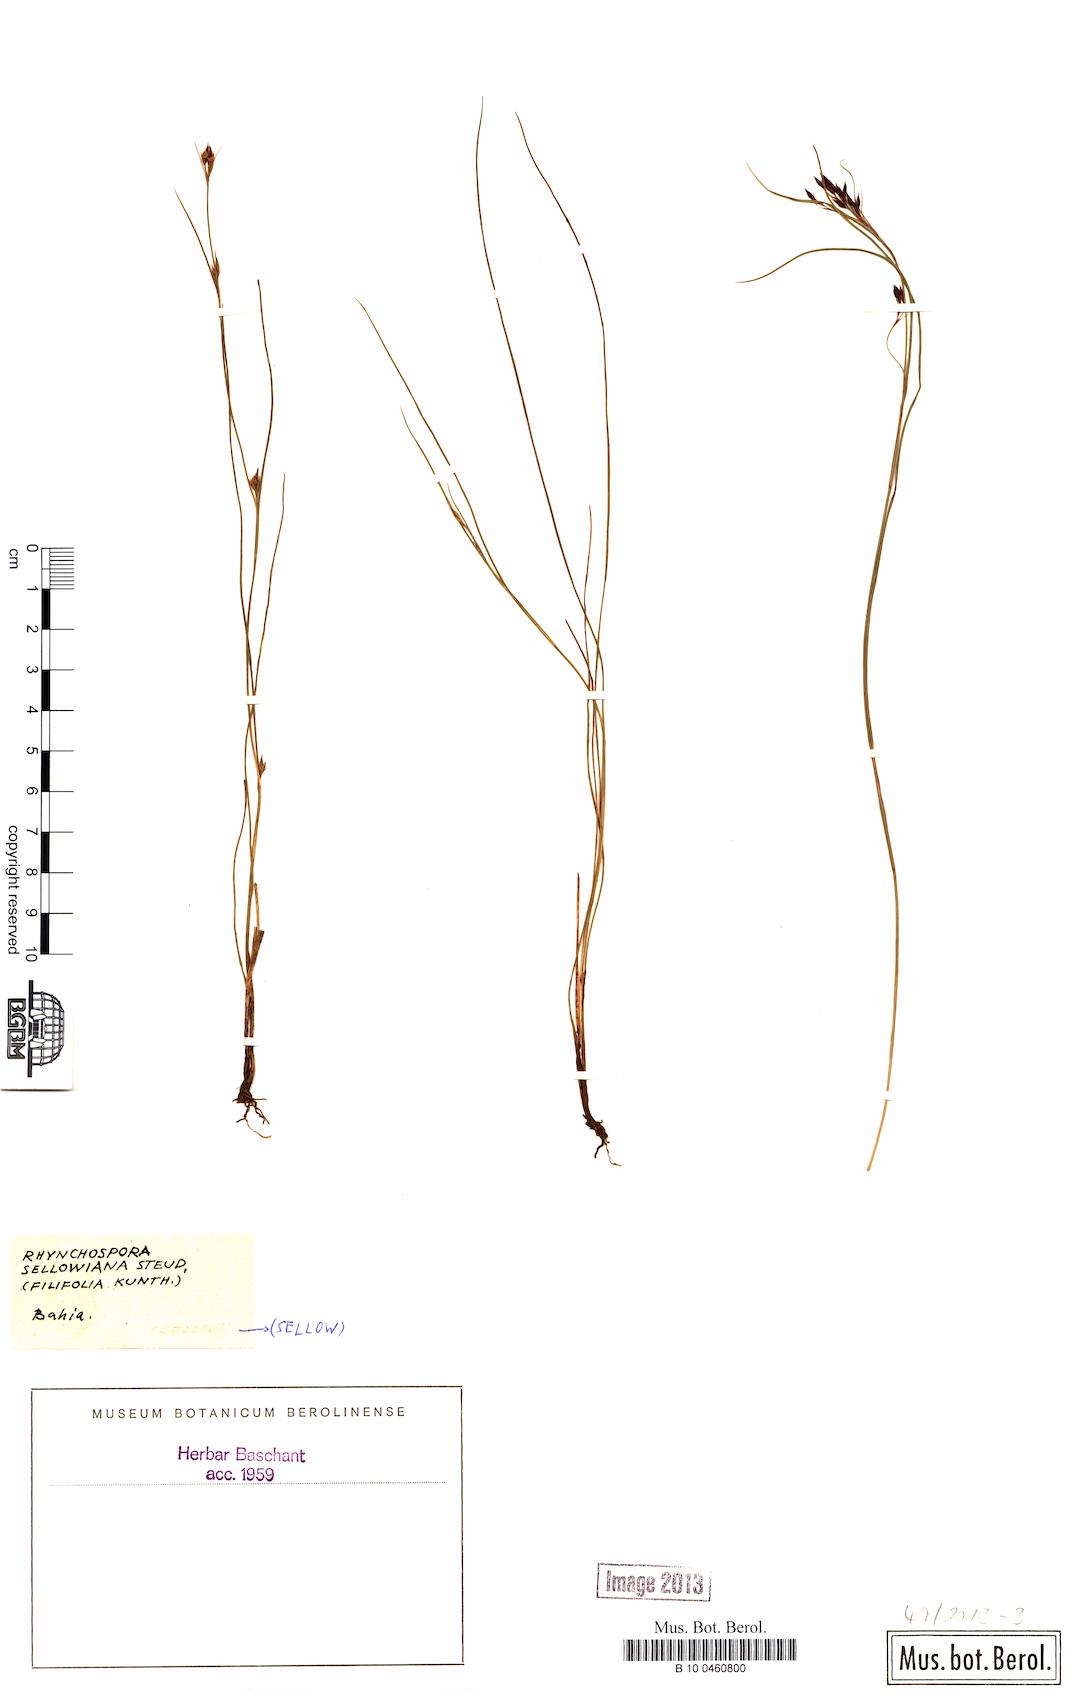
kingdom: Plantae
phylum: Tracheophyta
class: Liliopsida
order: Poales
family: Cyperaceae
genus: Rhynchospora
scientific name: Rhynchospora sellowiana
